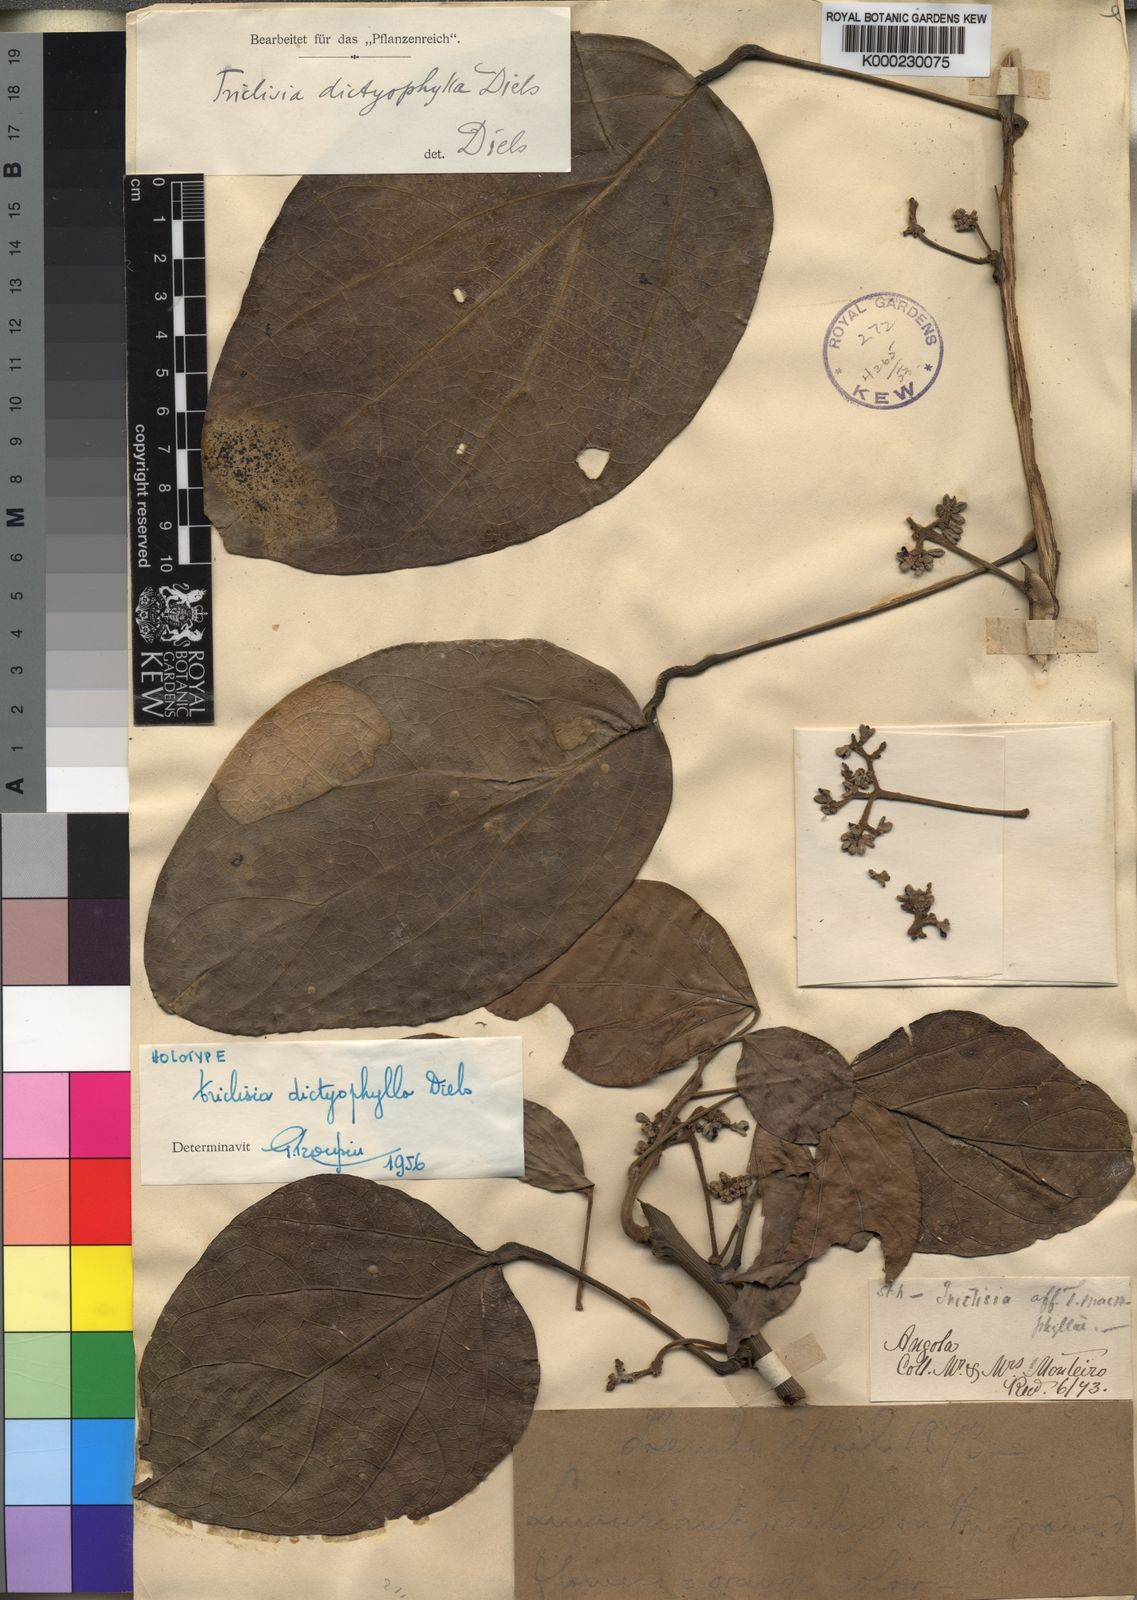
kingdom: Plantae
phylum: Tracheophyta
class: Magnoliopsida
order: Ranunculales
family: Menispermaceae
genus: Triclisia
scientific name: Triclisia dictyophylla
